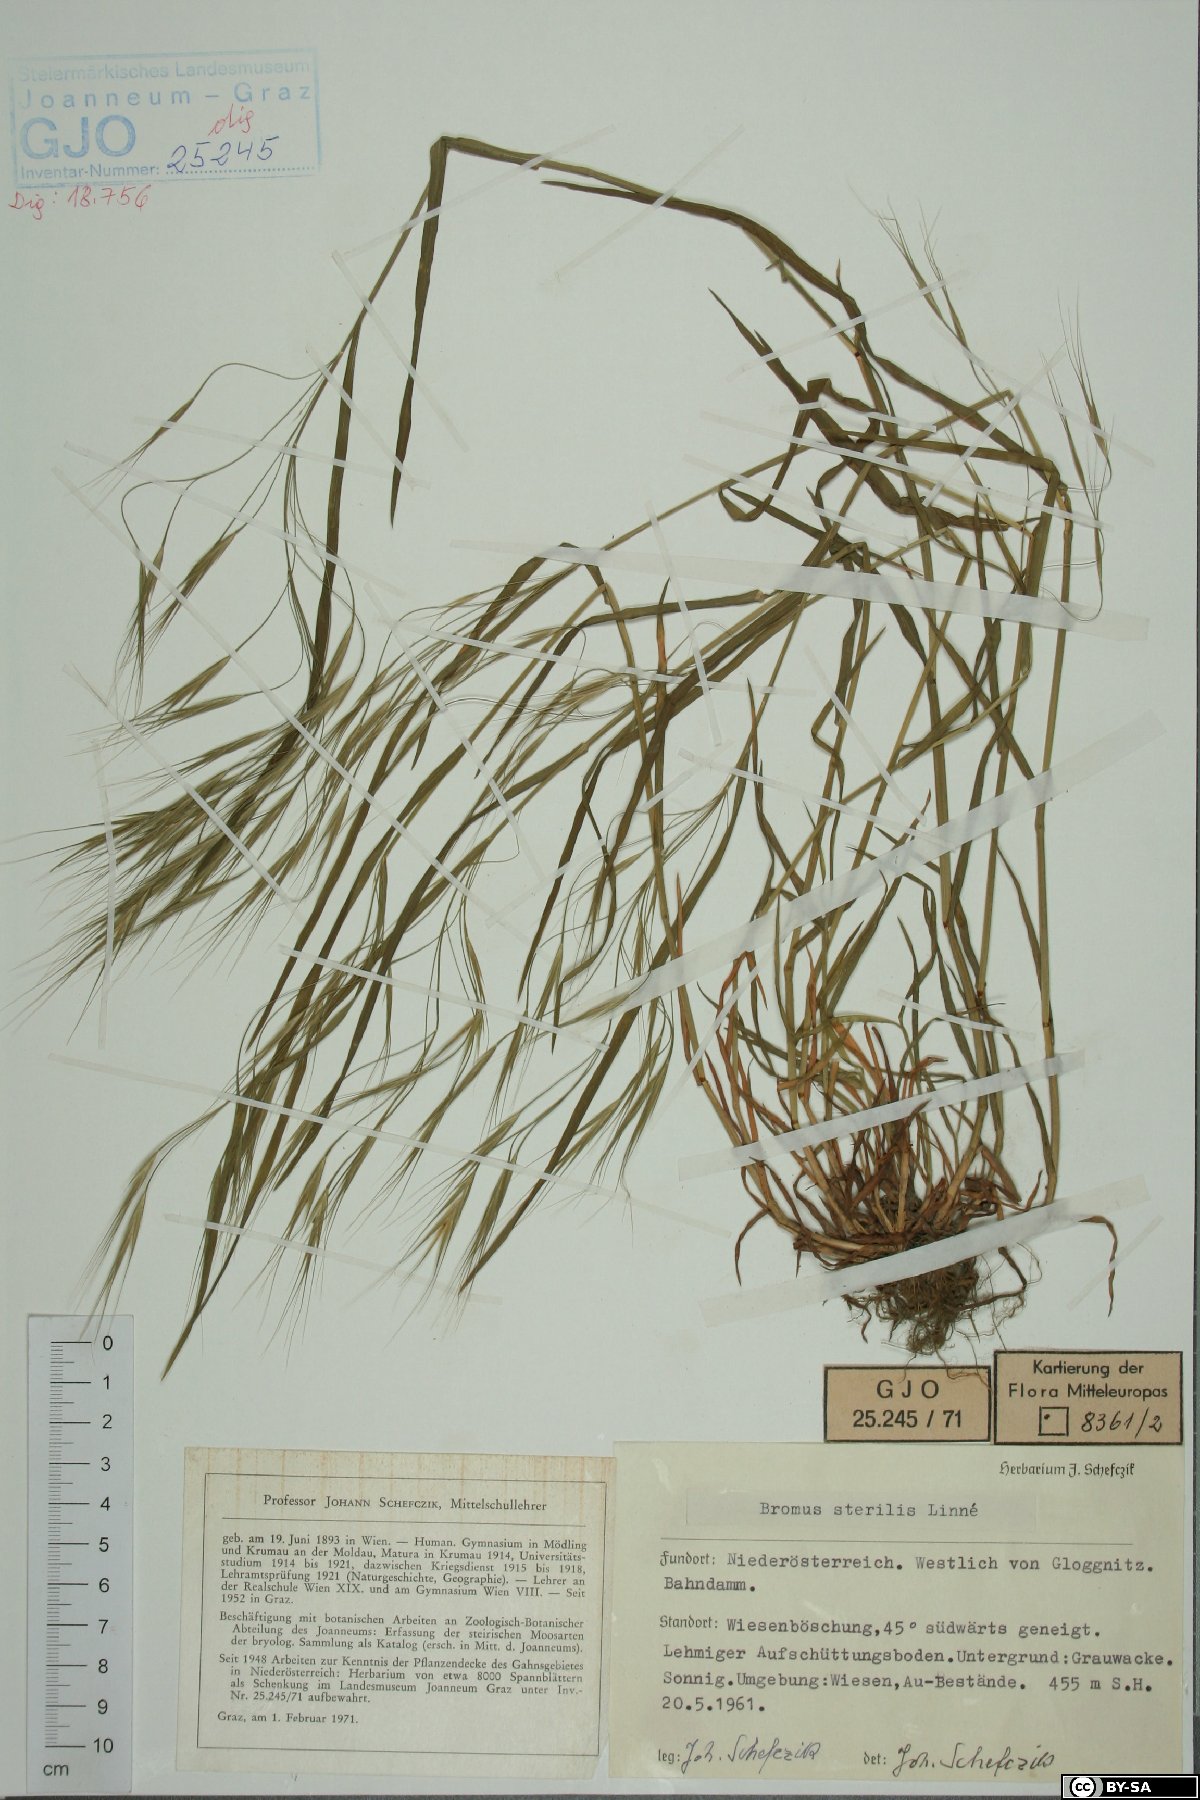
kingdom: Plantae
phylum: Tracheophyta
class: Liliopsida
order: Poales
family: Poaceae
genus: Bromus
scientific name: Bromus sterilis
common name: Poverty brome
